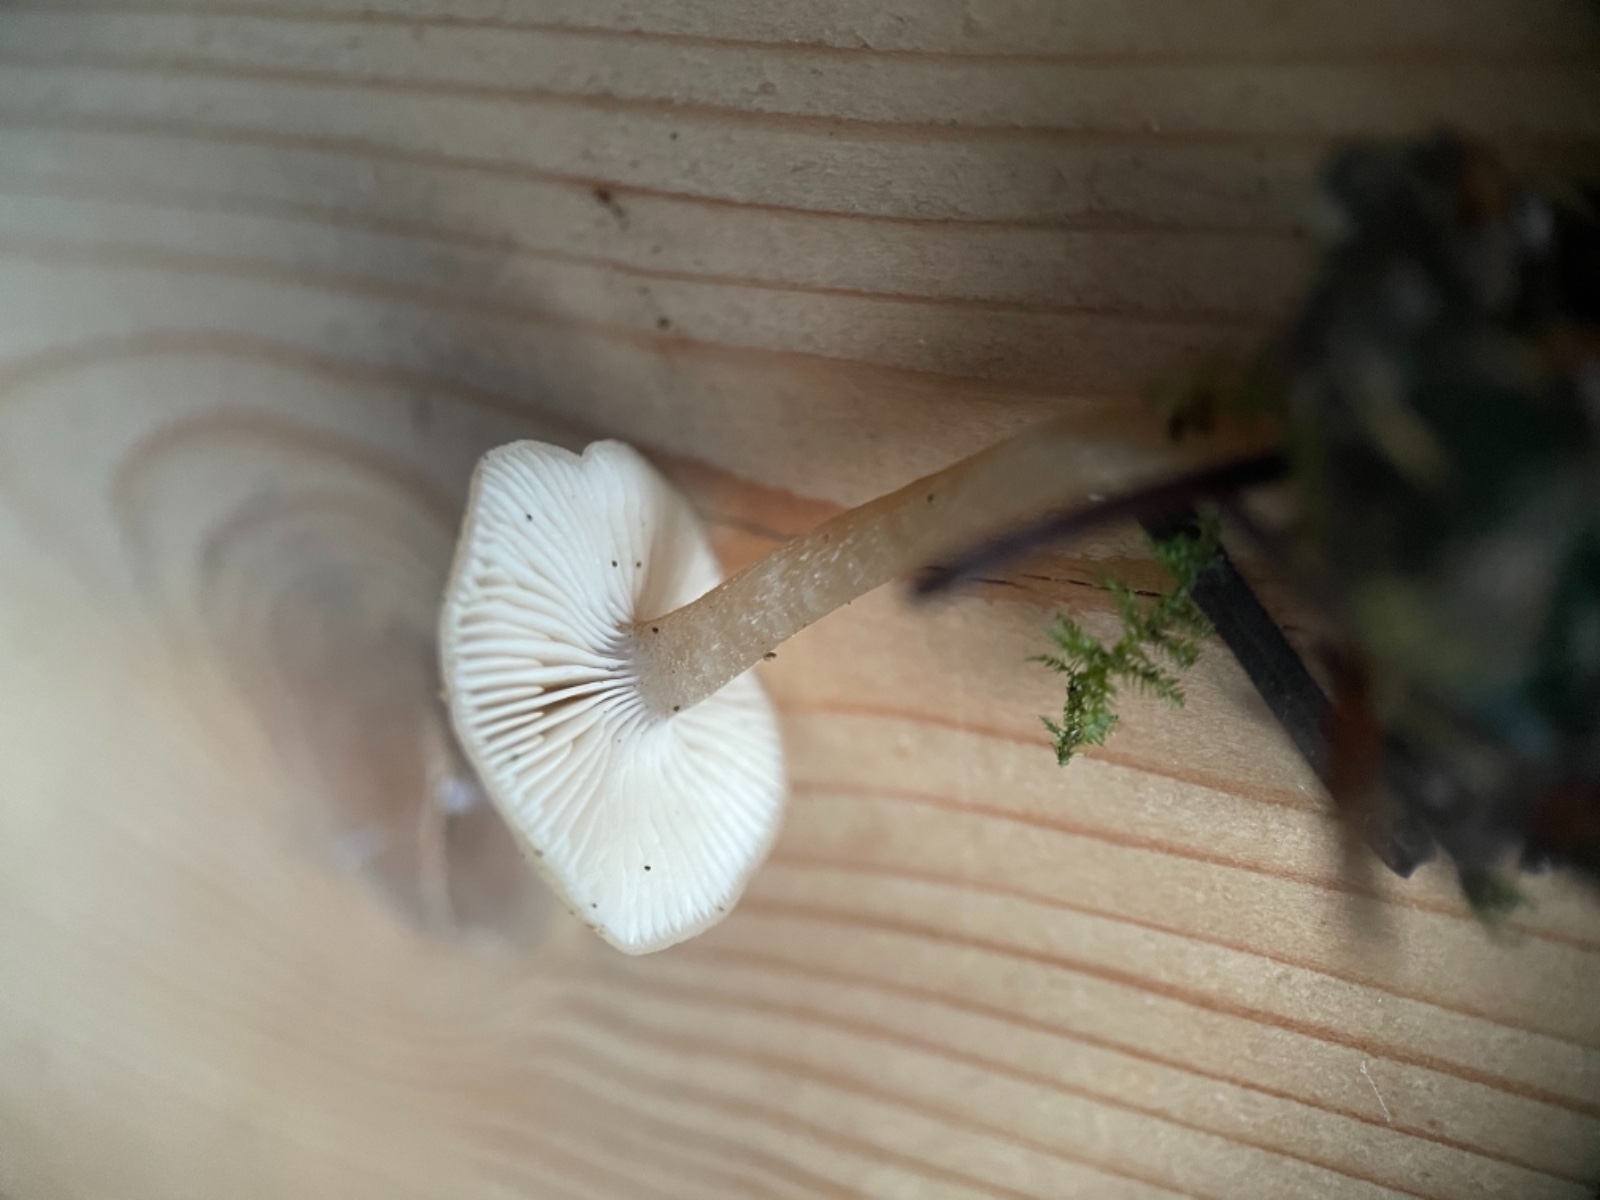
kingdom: Fungi
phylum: Basidiomycota
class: Agaricomycetes
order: Agaricales
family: Tricholomataceae
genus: Clitocybe
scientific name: Clitocybe
